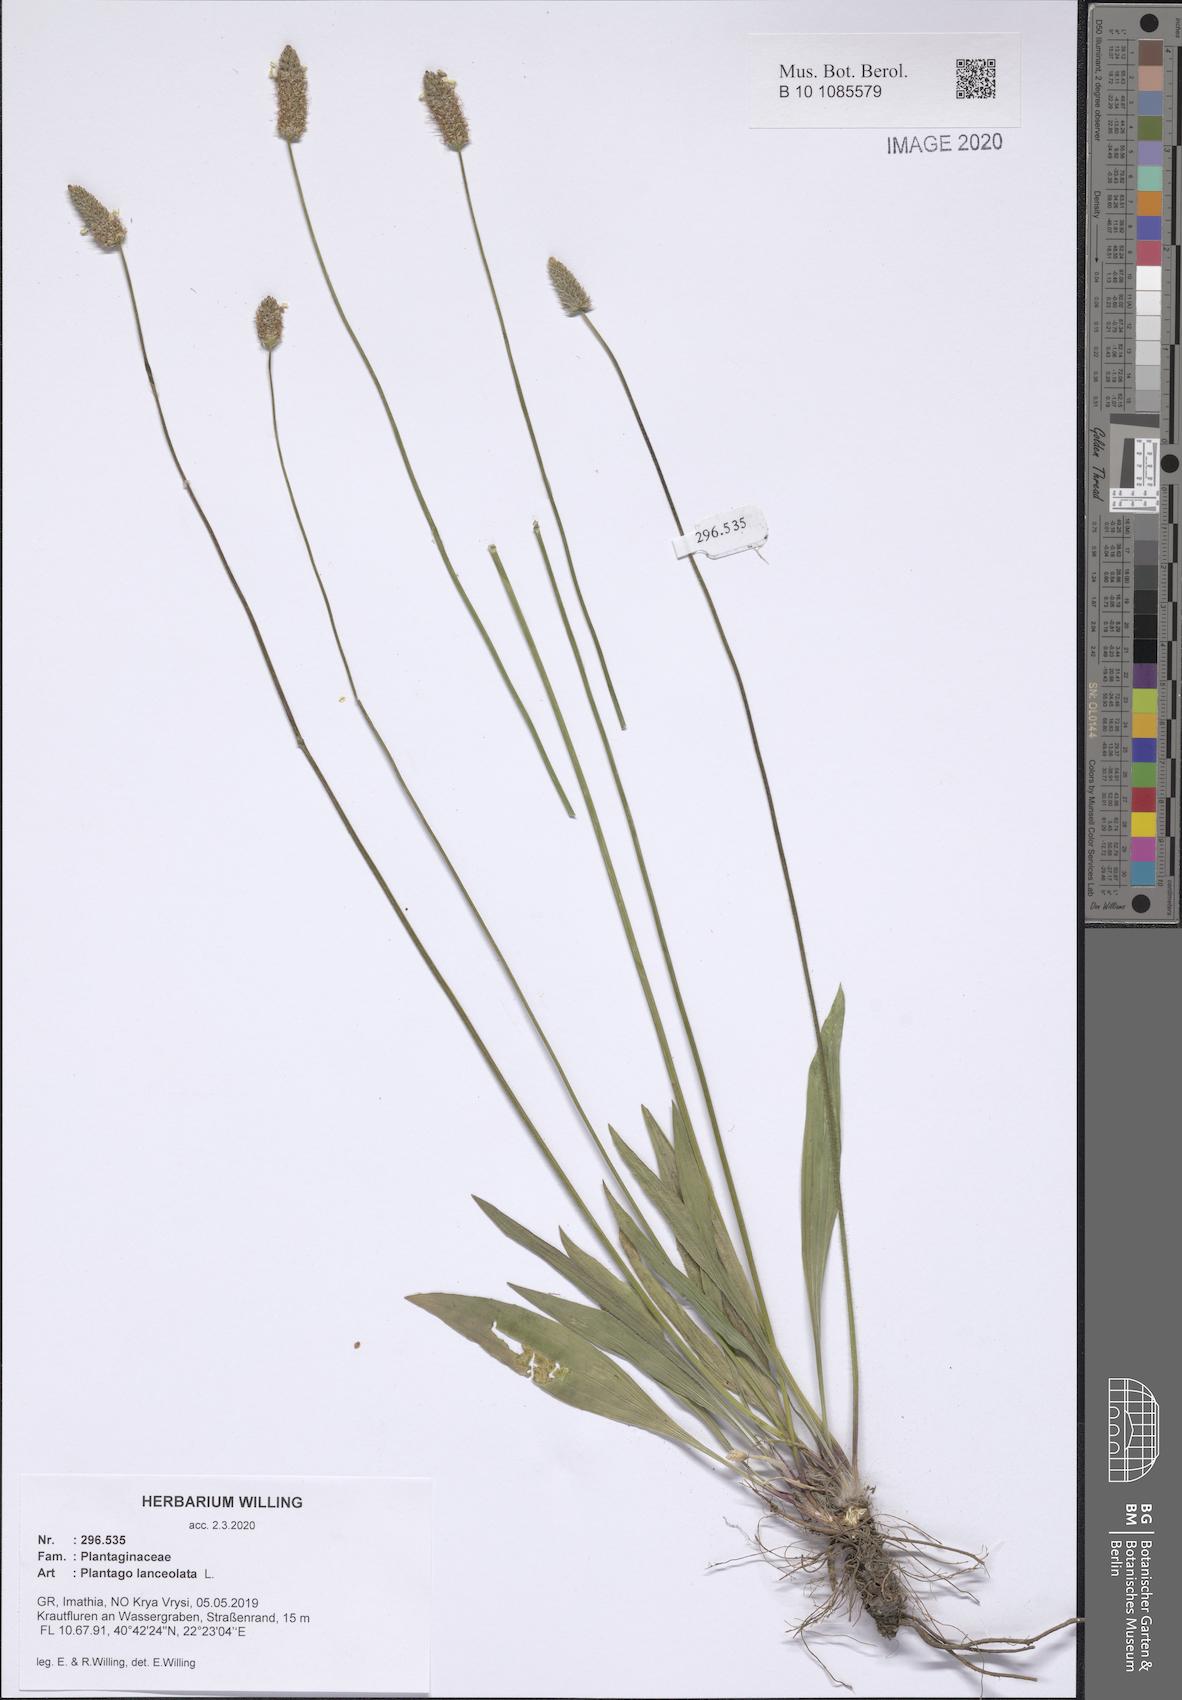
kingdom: Plantae
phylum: Tracheophyta
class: Magnoliopsida
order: Lamiales
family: Plantaginaceae
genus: Plantago
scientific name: Plantago lanceolata
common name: Ribwort plantain
